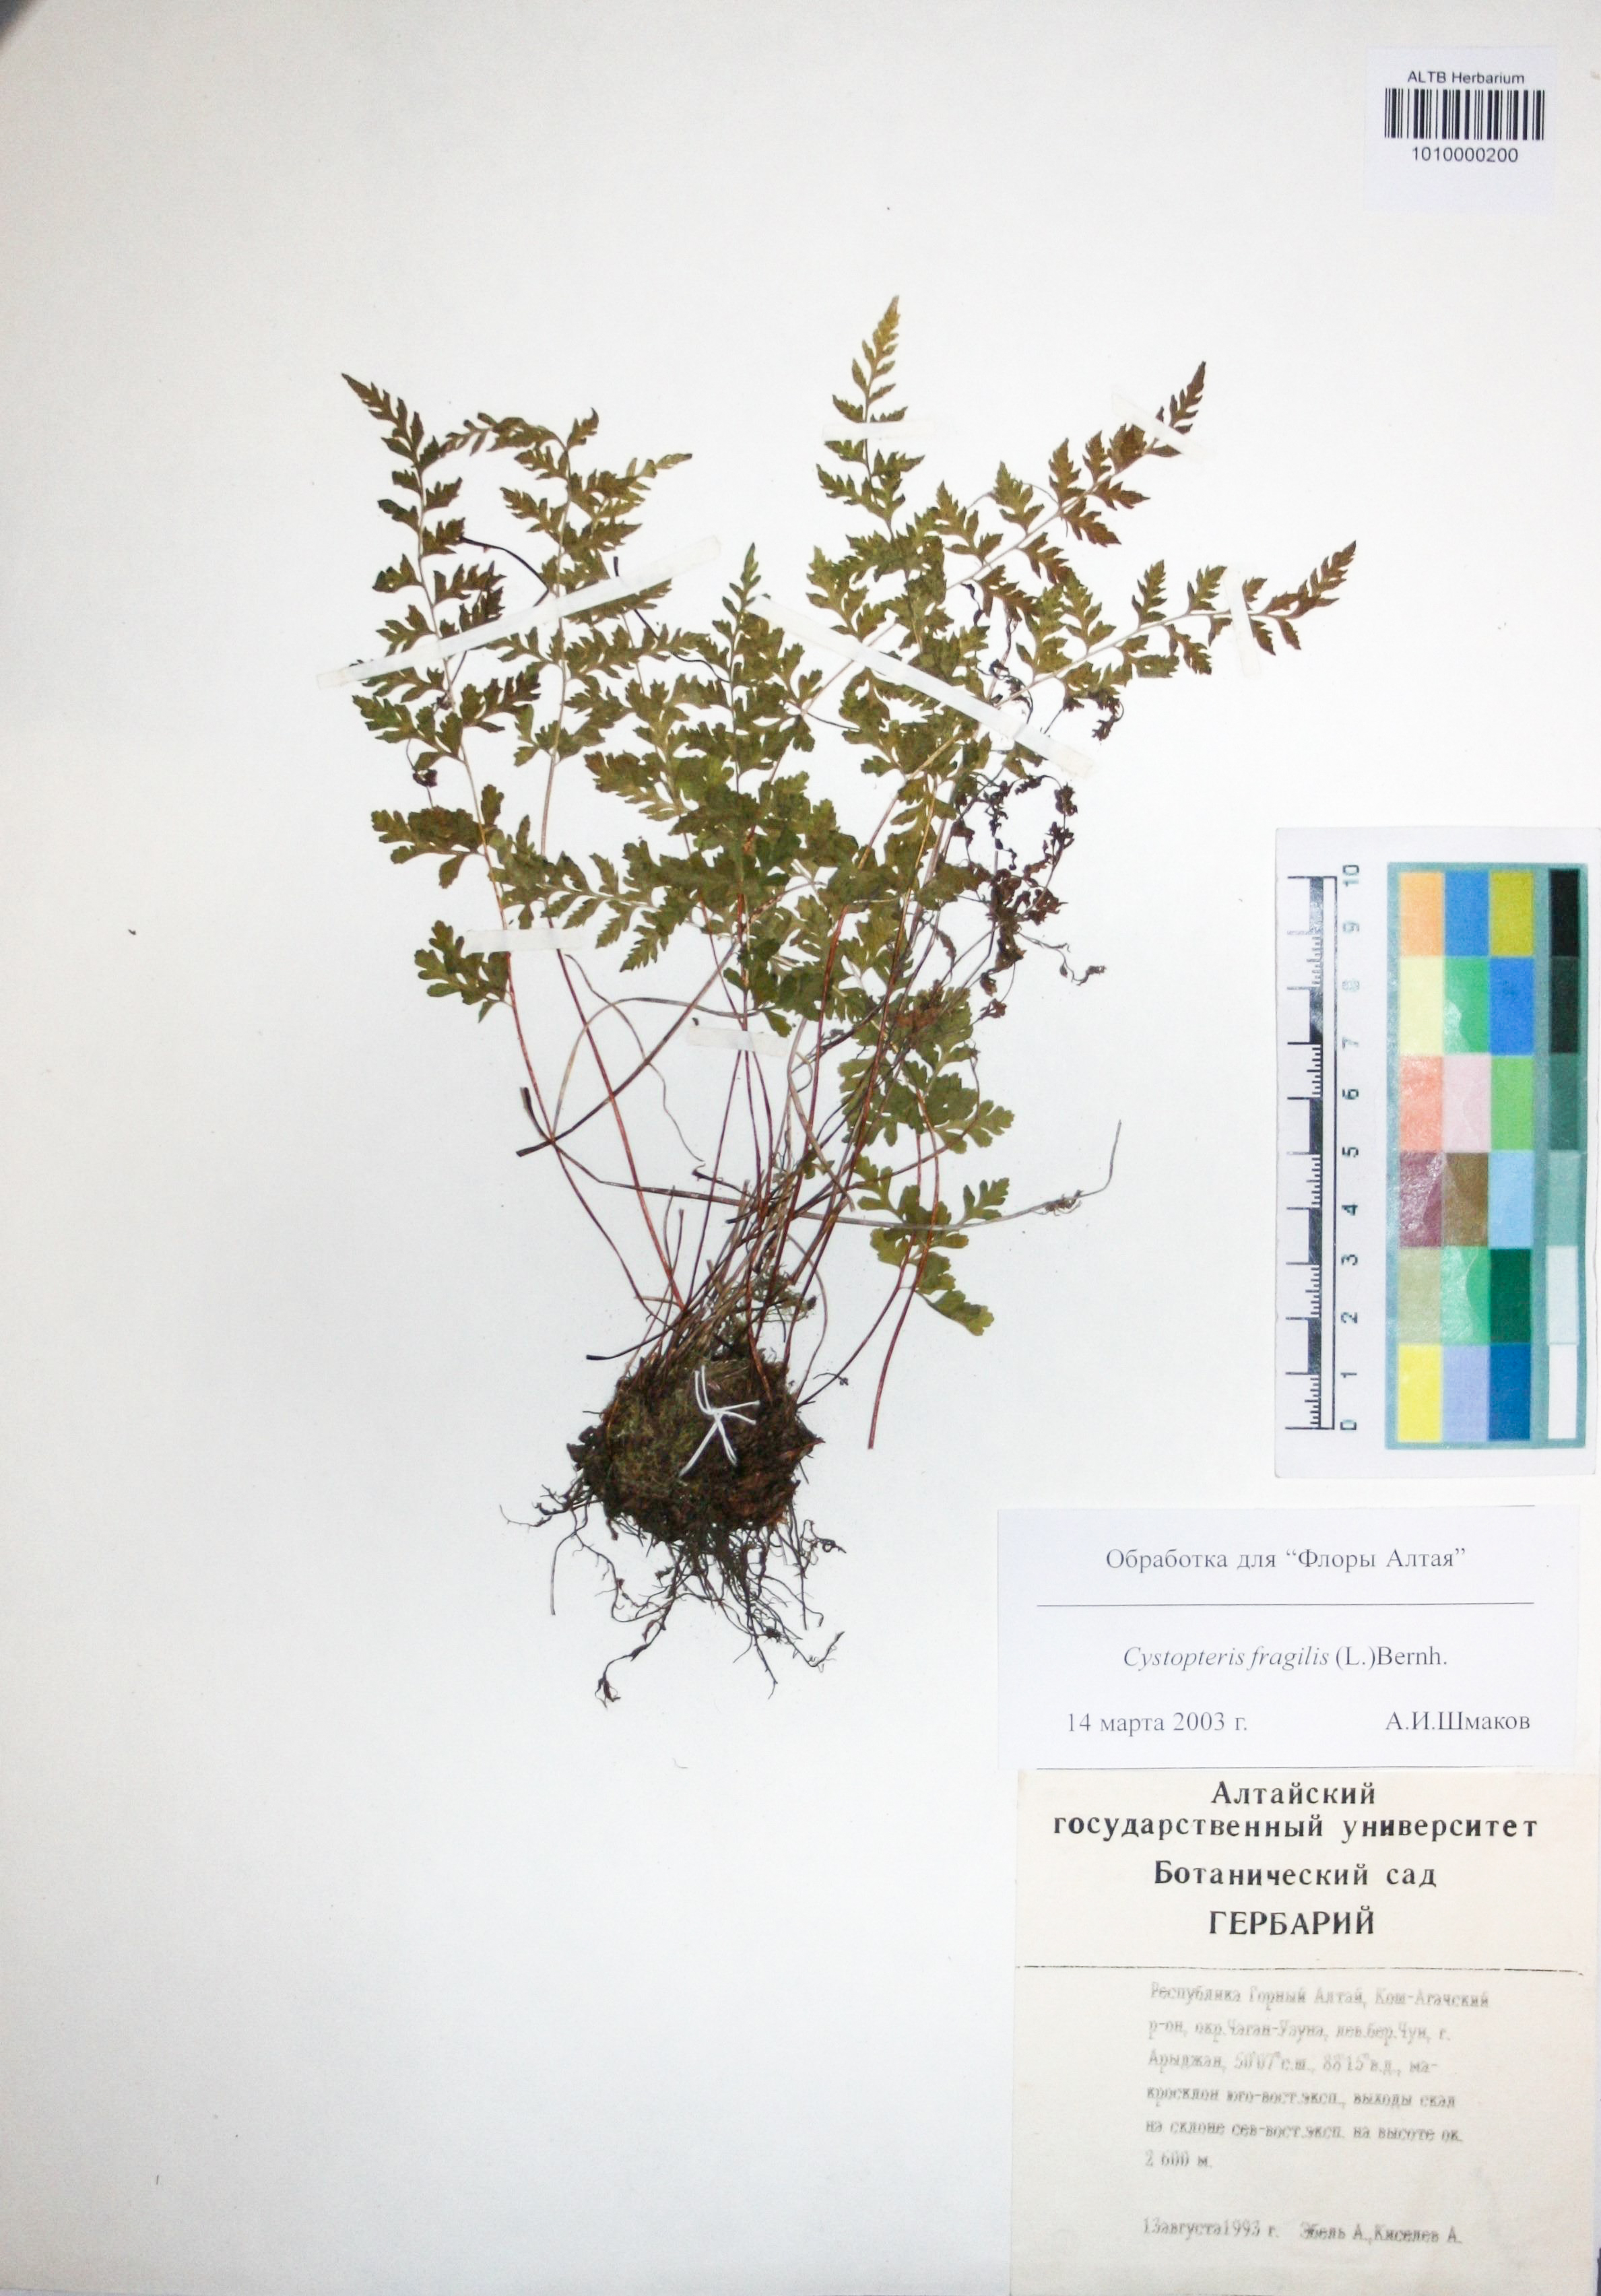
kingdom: Plantae
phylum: Tracheophyta
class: Polypodiopsida
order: Polypodiales
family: Cystopteridaceae
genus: Cystopteris
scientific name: Cystopteris fragilis
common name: Brittle bladder fern
